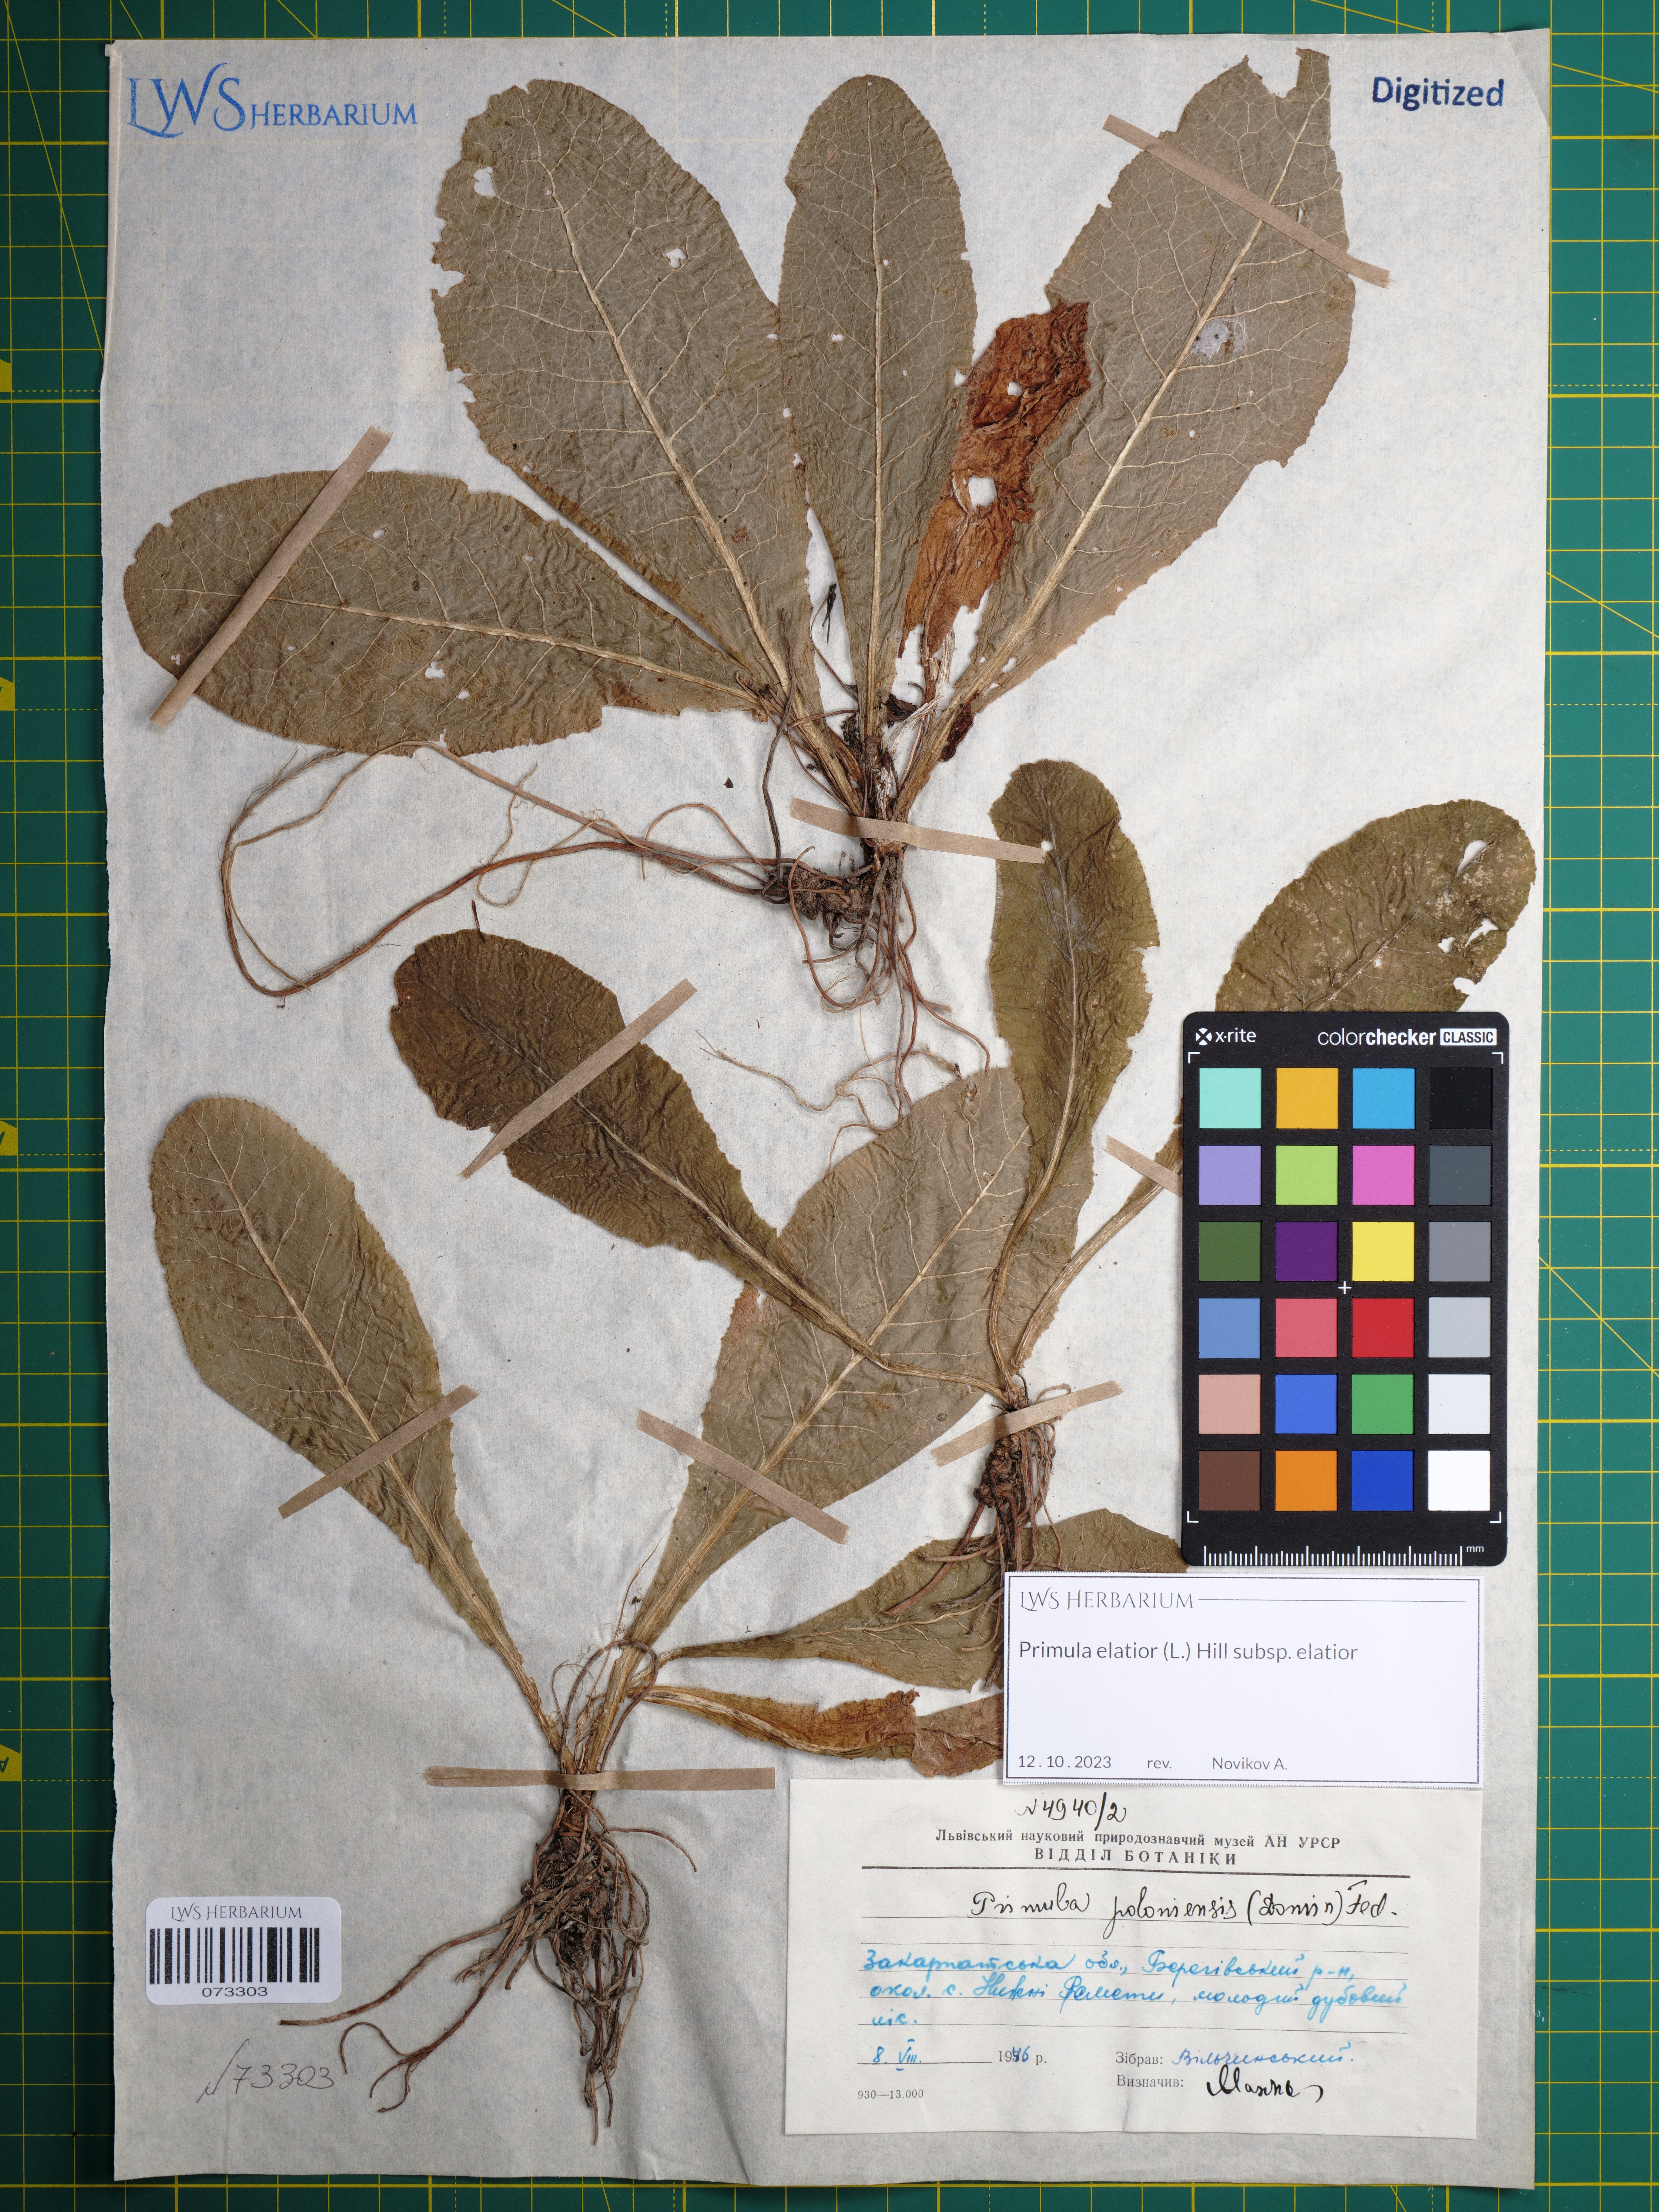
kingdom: Plantae
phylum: Tracheophyta
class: Magnoliopsida
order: Ericales
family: Primulaceae
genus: Primula
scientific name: Primula elatior
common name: Oxlip
